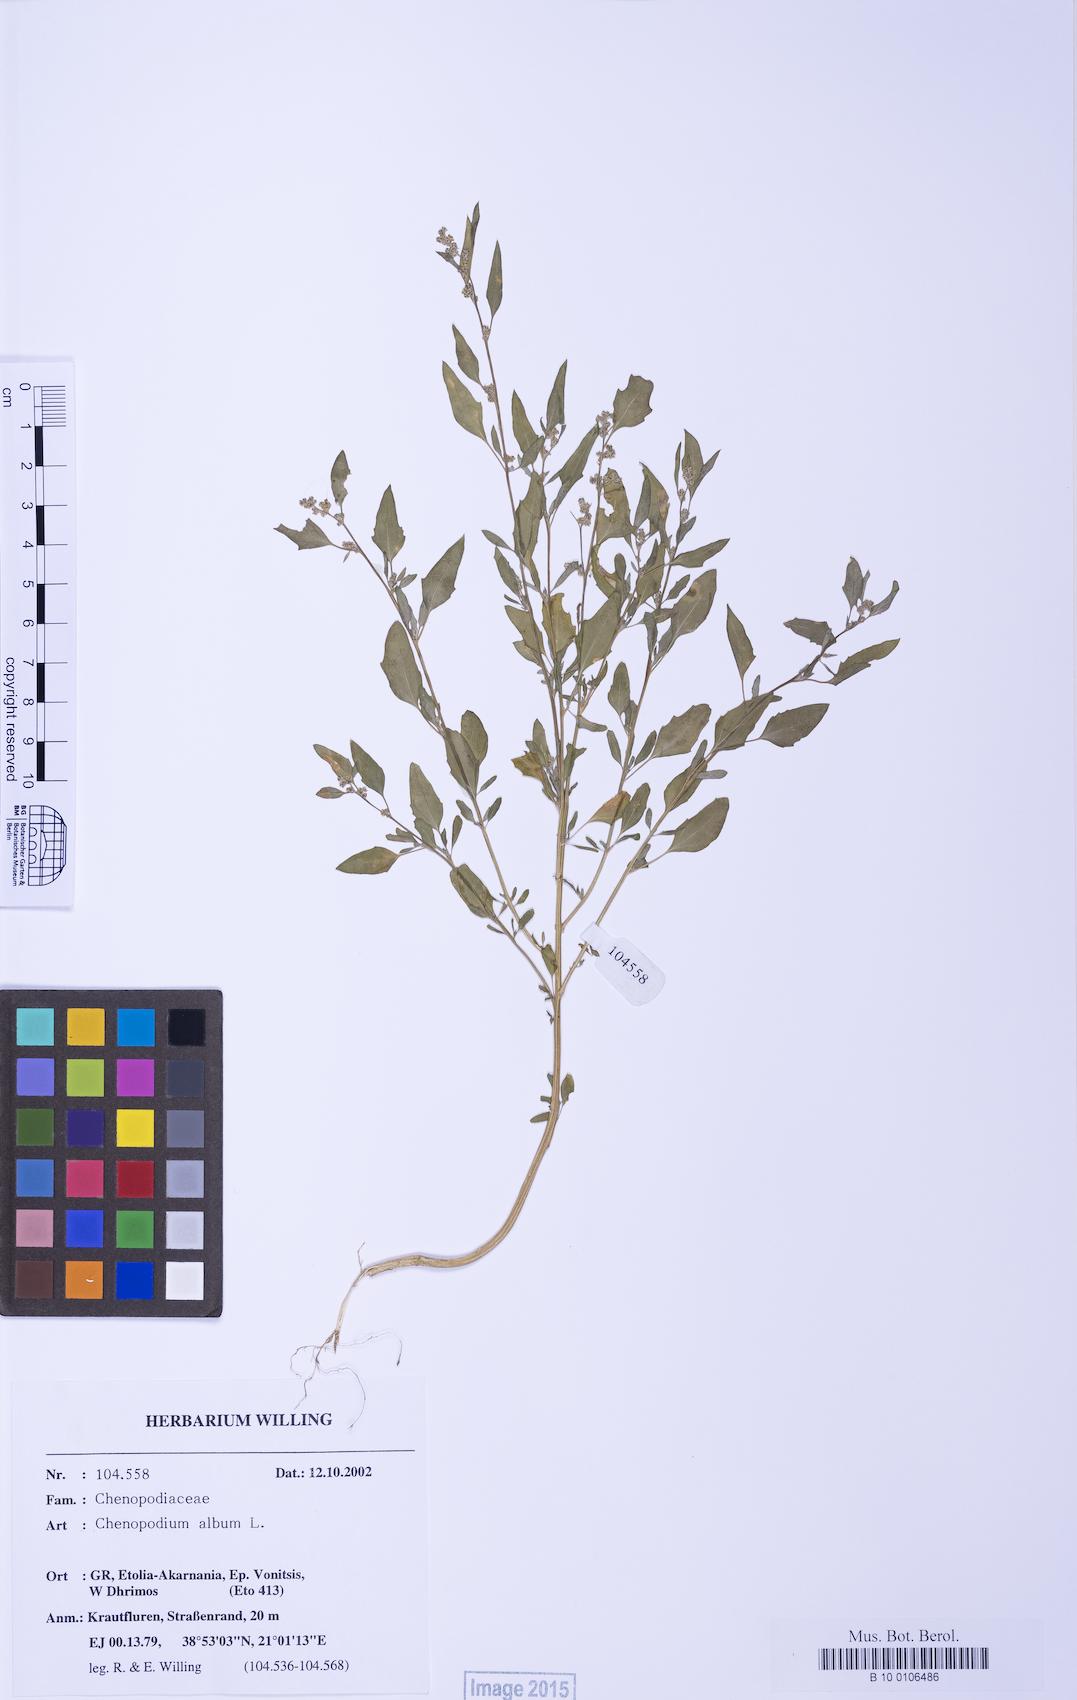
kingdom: Plantae
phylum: Tracheophyta
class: Magnoliopsida
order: Caryophyllales
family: Amaranthaceae
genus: Chenopodium
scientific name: Chenopodium striatiforme
